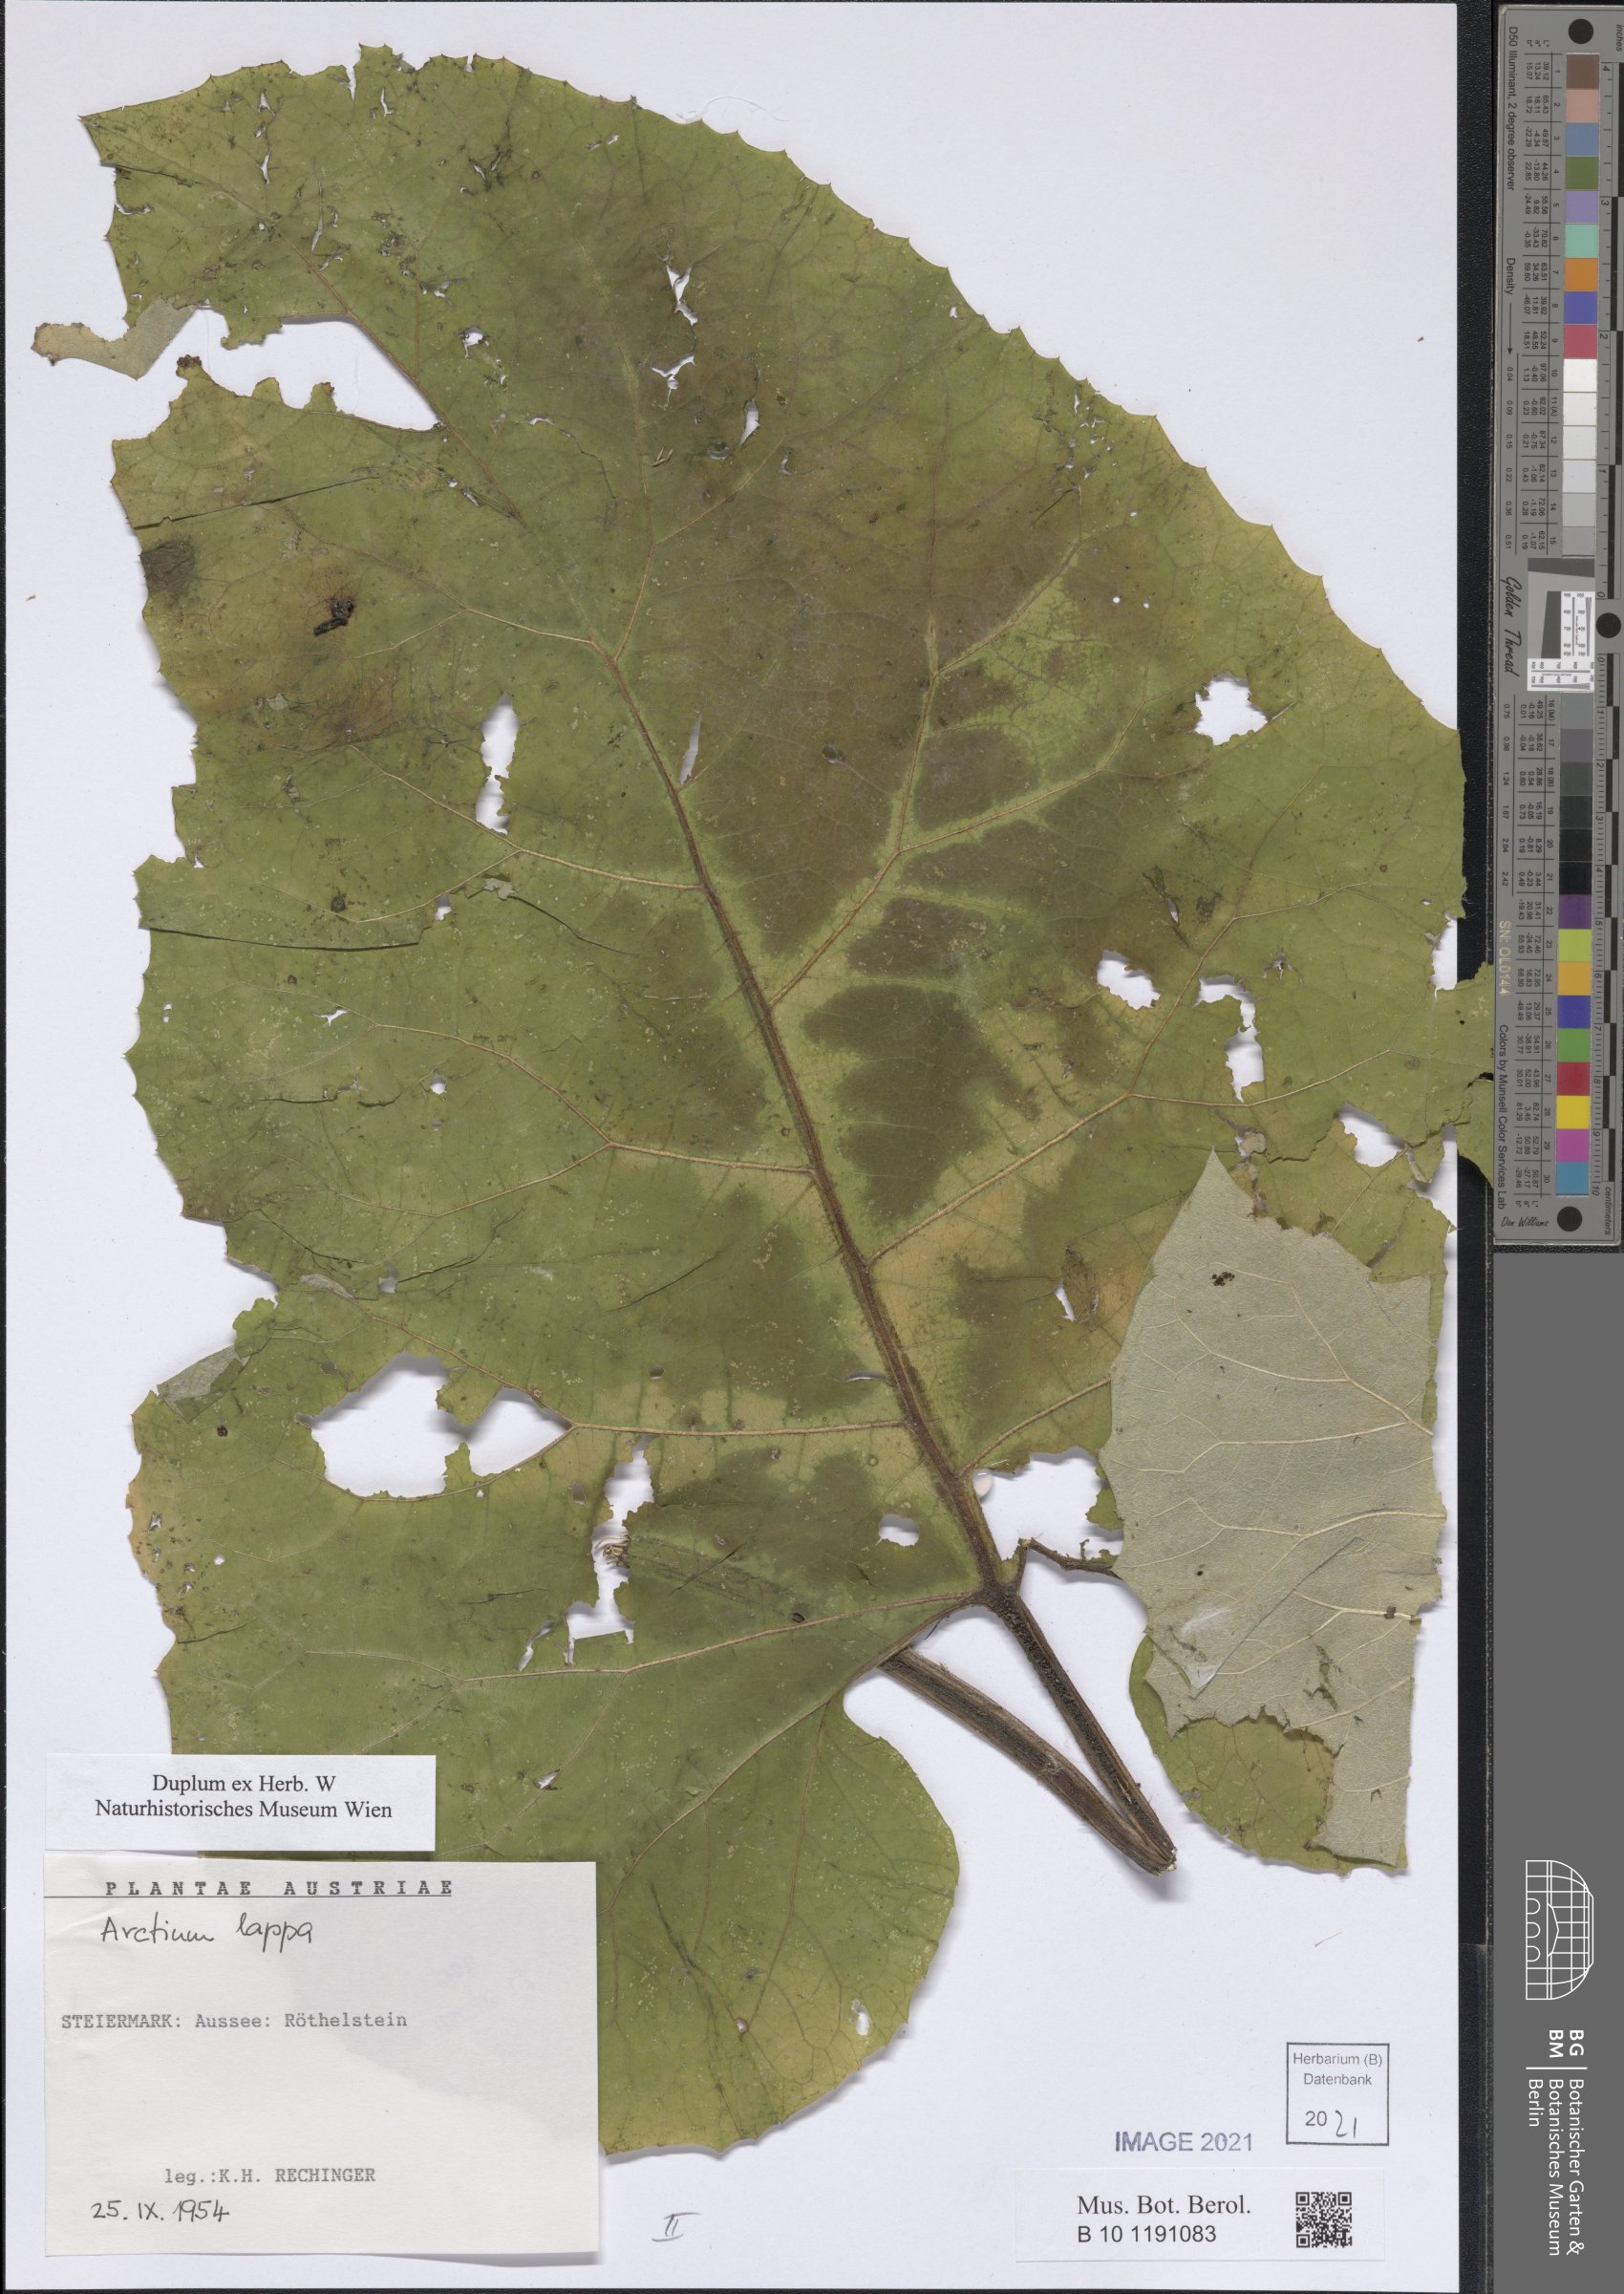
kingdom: Plantae
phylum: Tracheophyta
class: Magnoliopsida
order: Asterales
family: Asteraceae
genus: Arctium
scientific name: Arctium lappa
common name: Greater burdock
